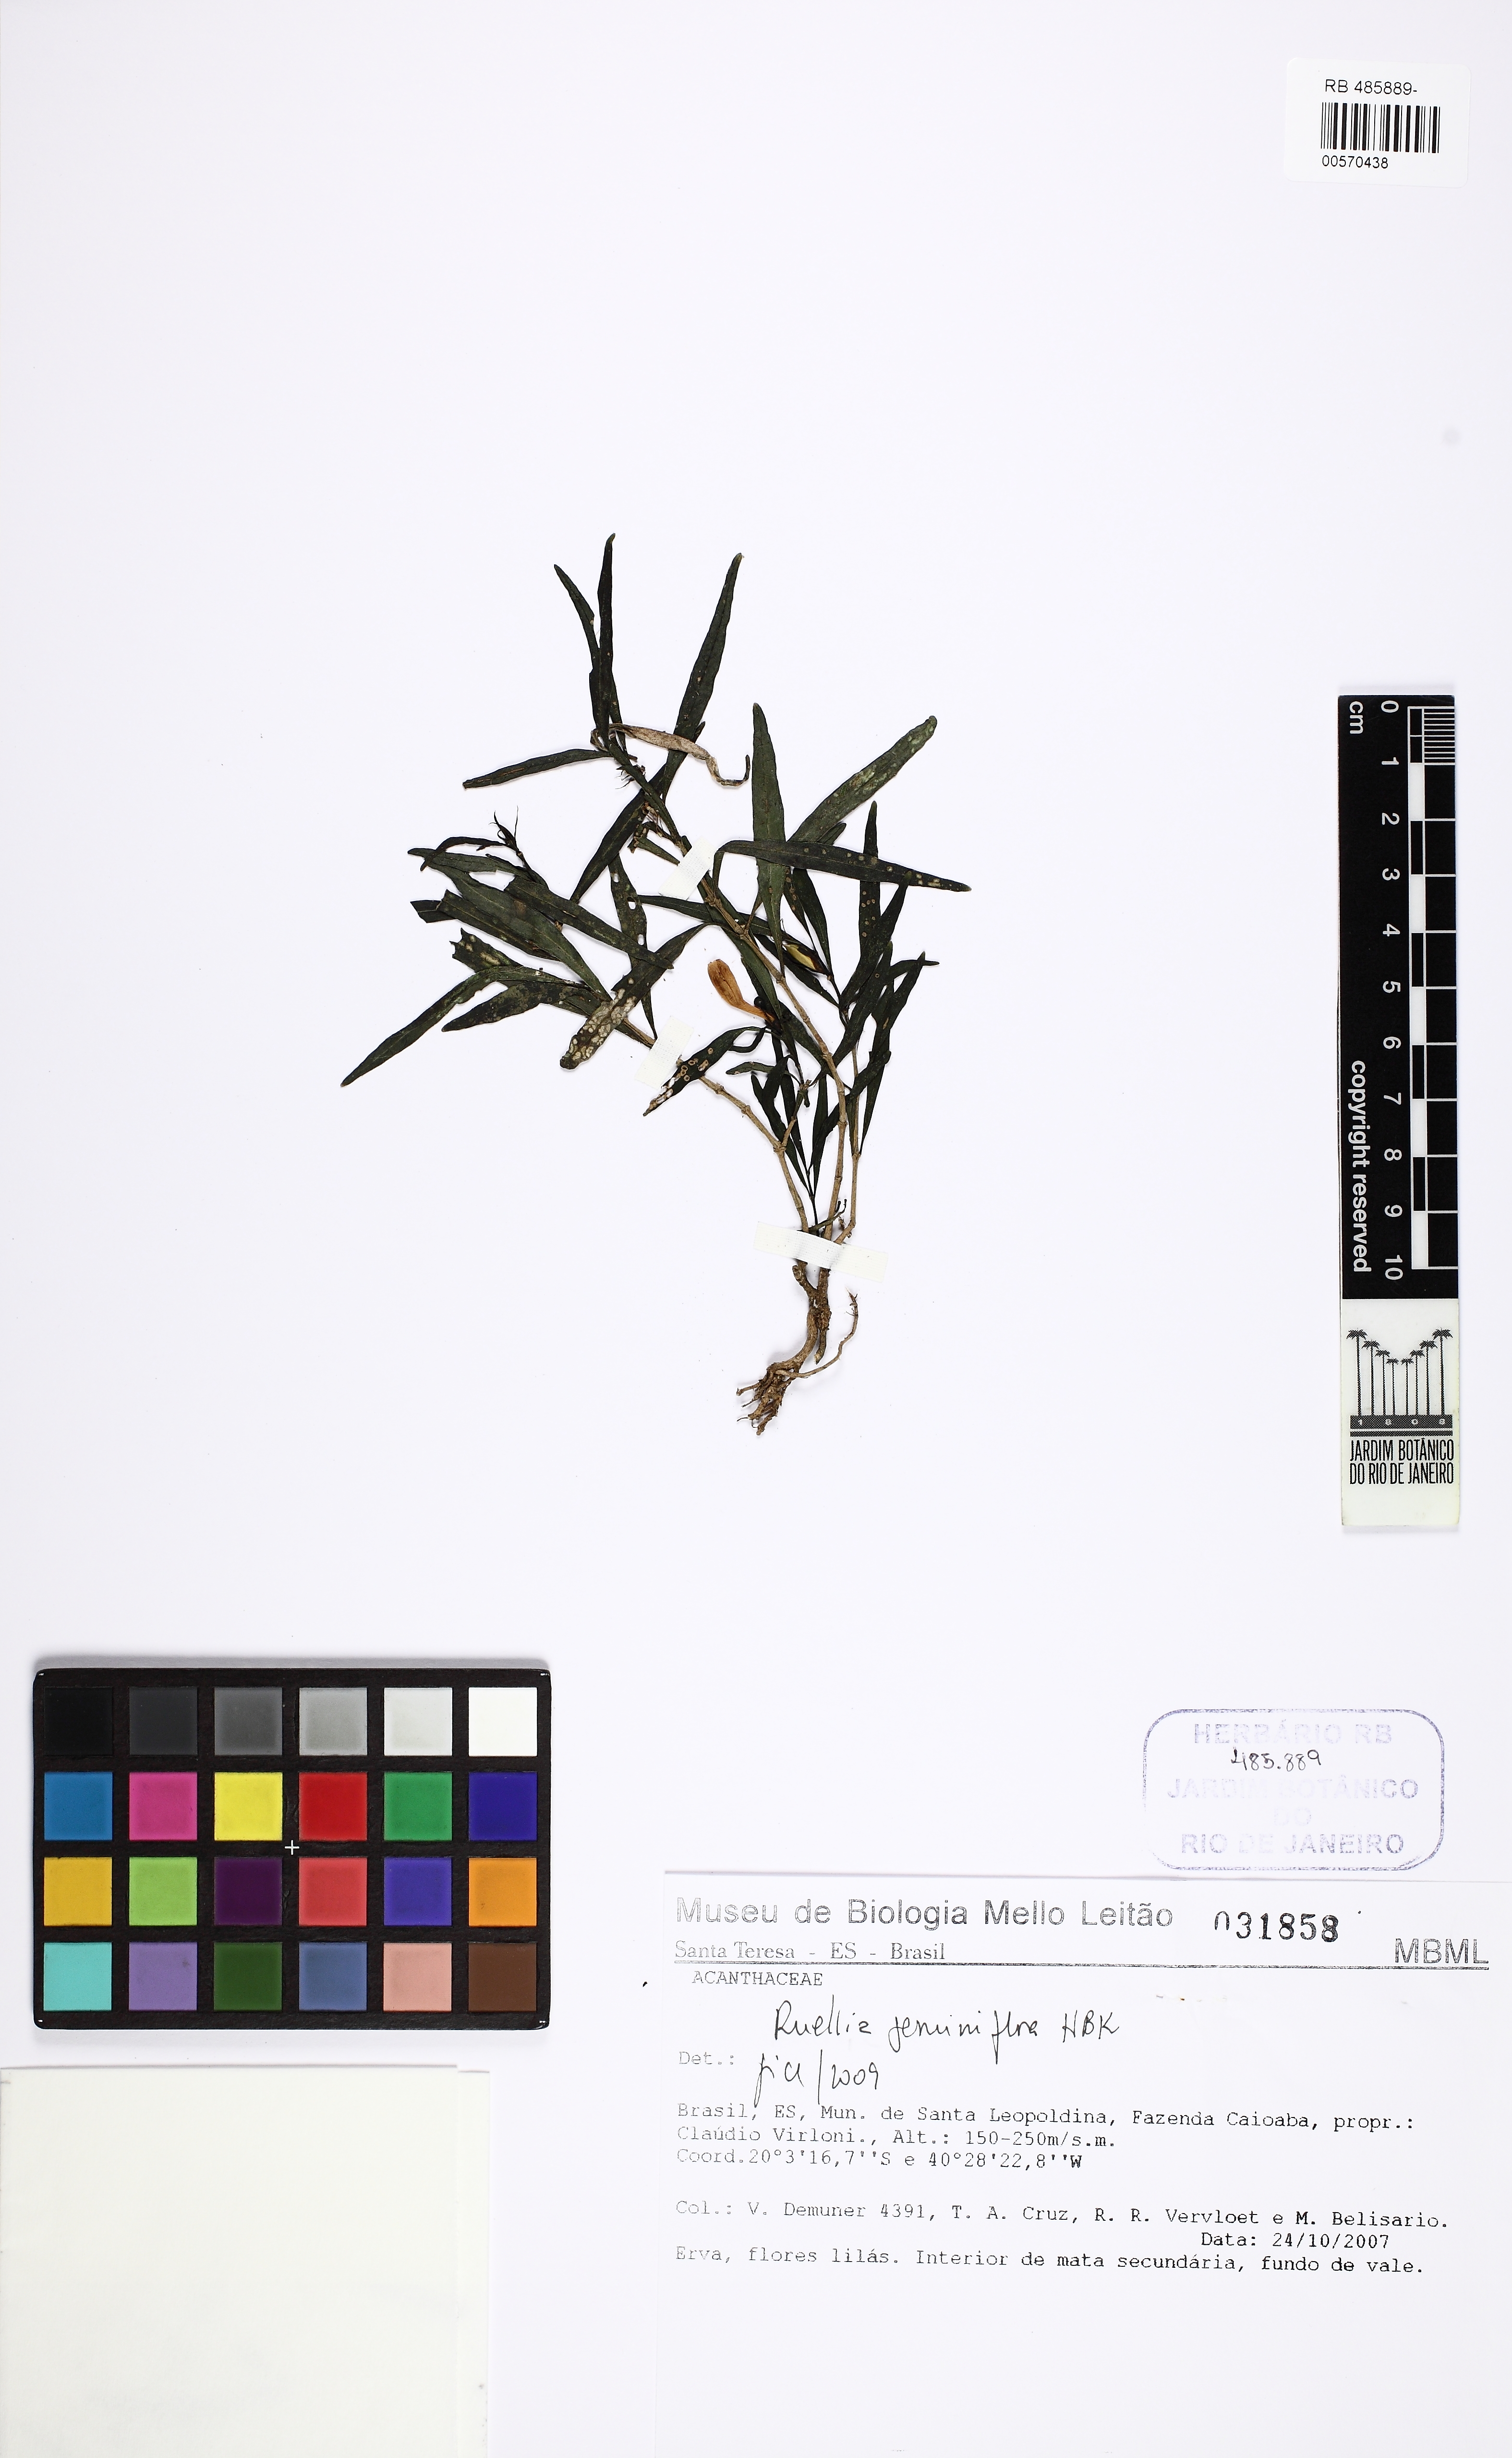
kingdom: Plantae
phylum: Tracheophyta
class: Magnoliopsida
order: Lamiales
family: Acanthaceae
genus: Ruellia
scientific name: Ruellia geminiflora
